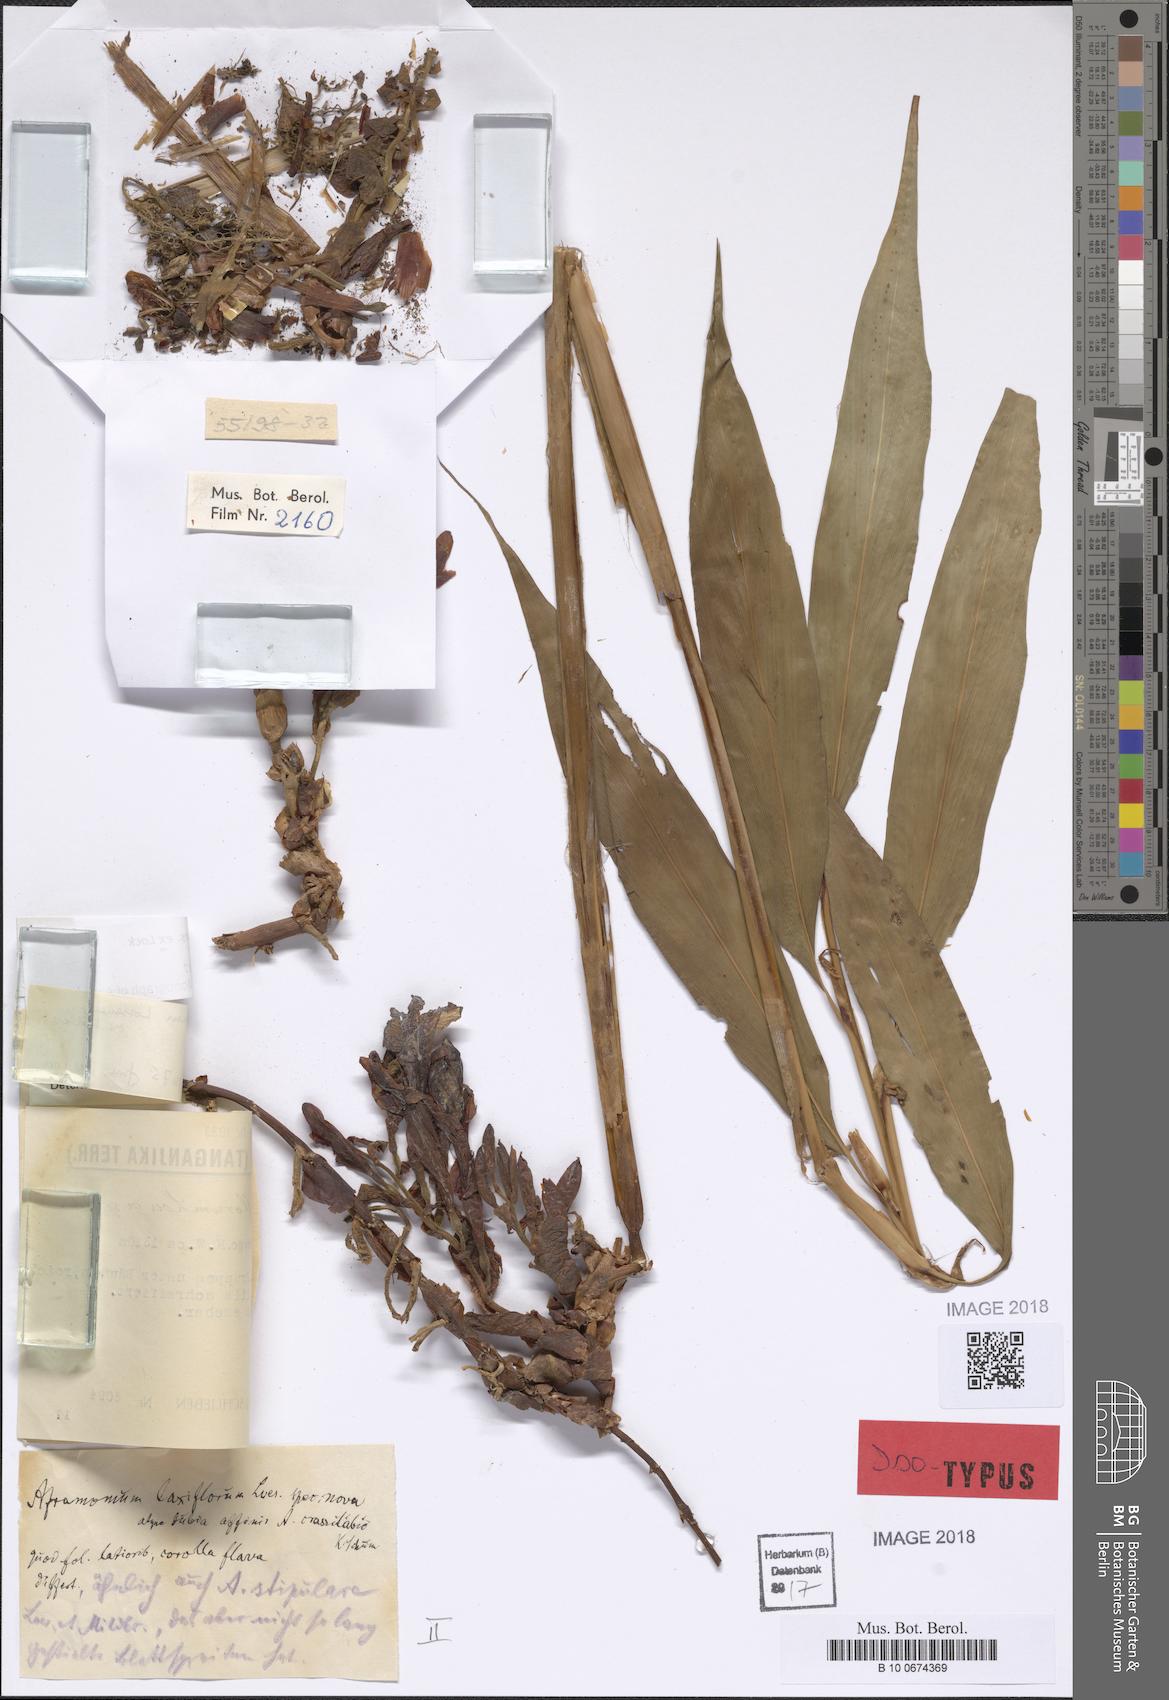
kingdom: Plantae
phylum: Tracheophyta
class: Liliopsida
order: Zingiberales
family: Zingiberaceae
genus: Aframomum
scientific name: Aframomum laxiflorum
